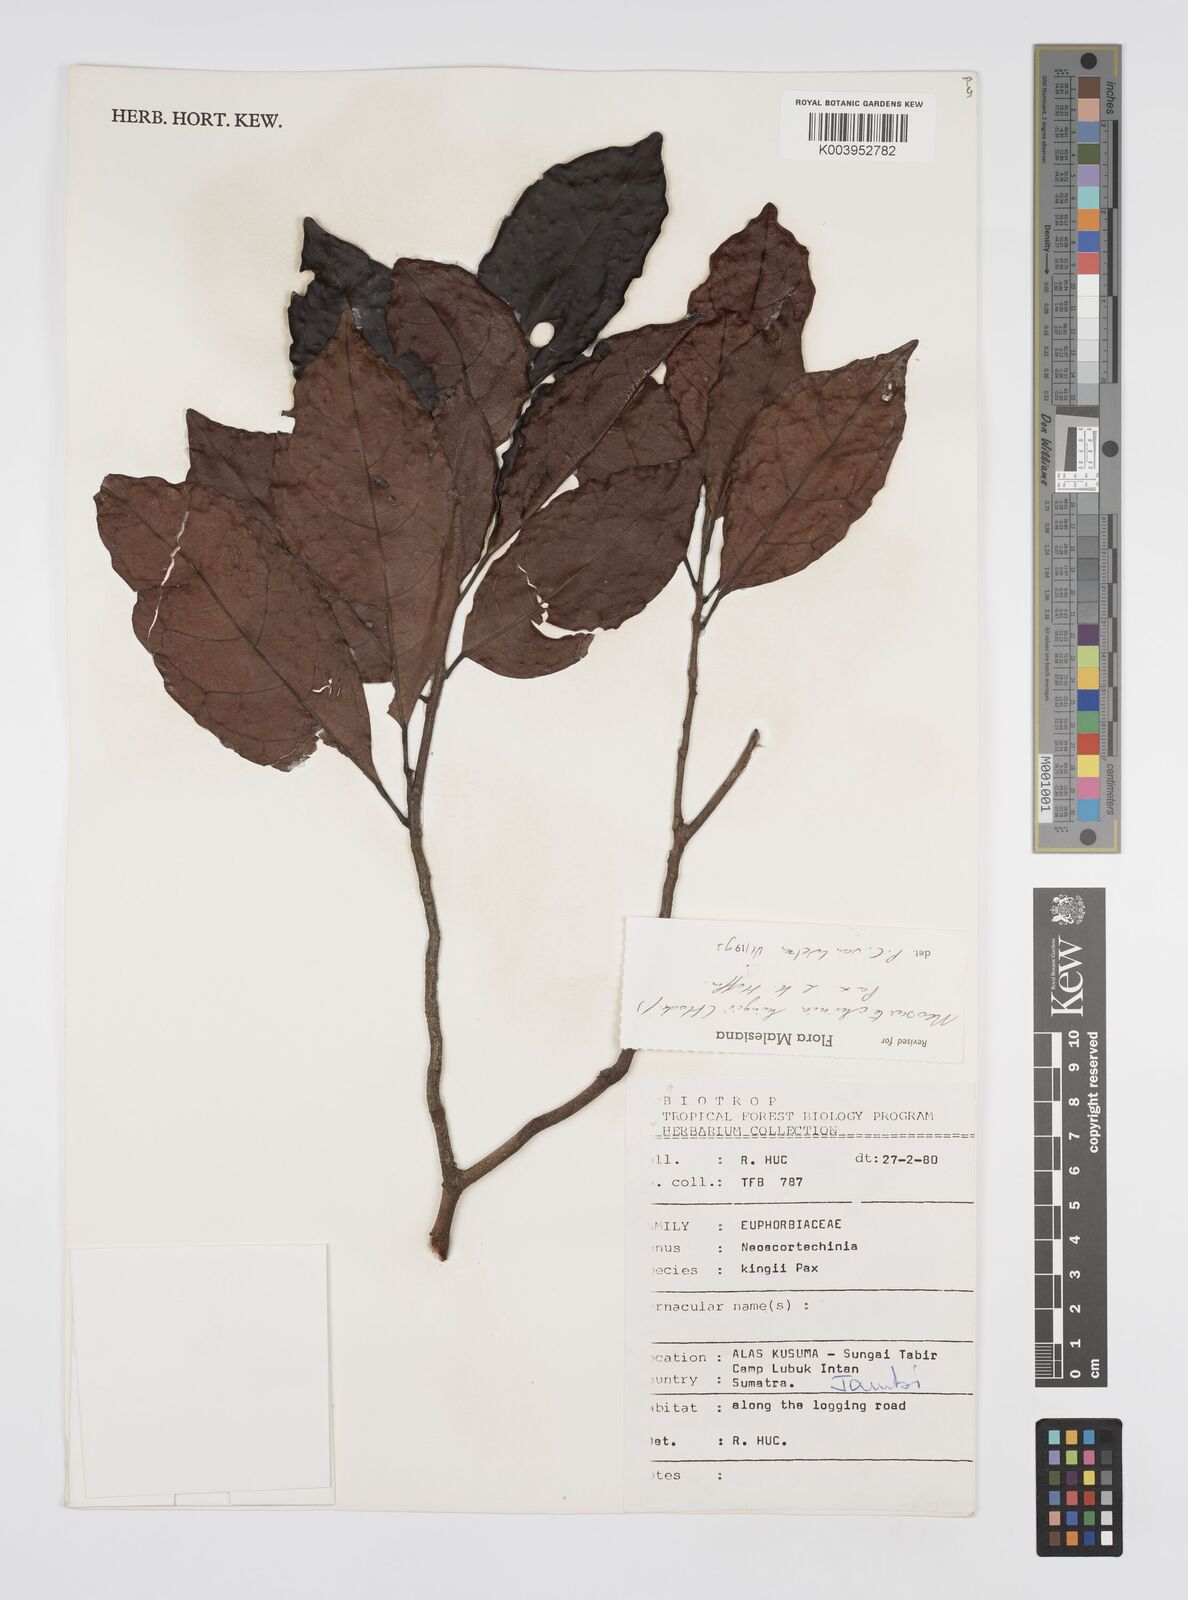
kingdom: Plantae
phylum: Tracheophyta
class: Magnoliopsida
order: Malpighiales
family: Euphorbiaceae
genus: Neoscortechinia
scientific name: Neoscortechinia kingii
